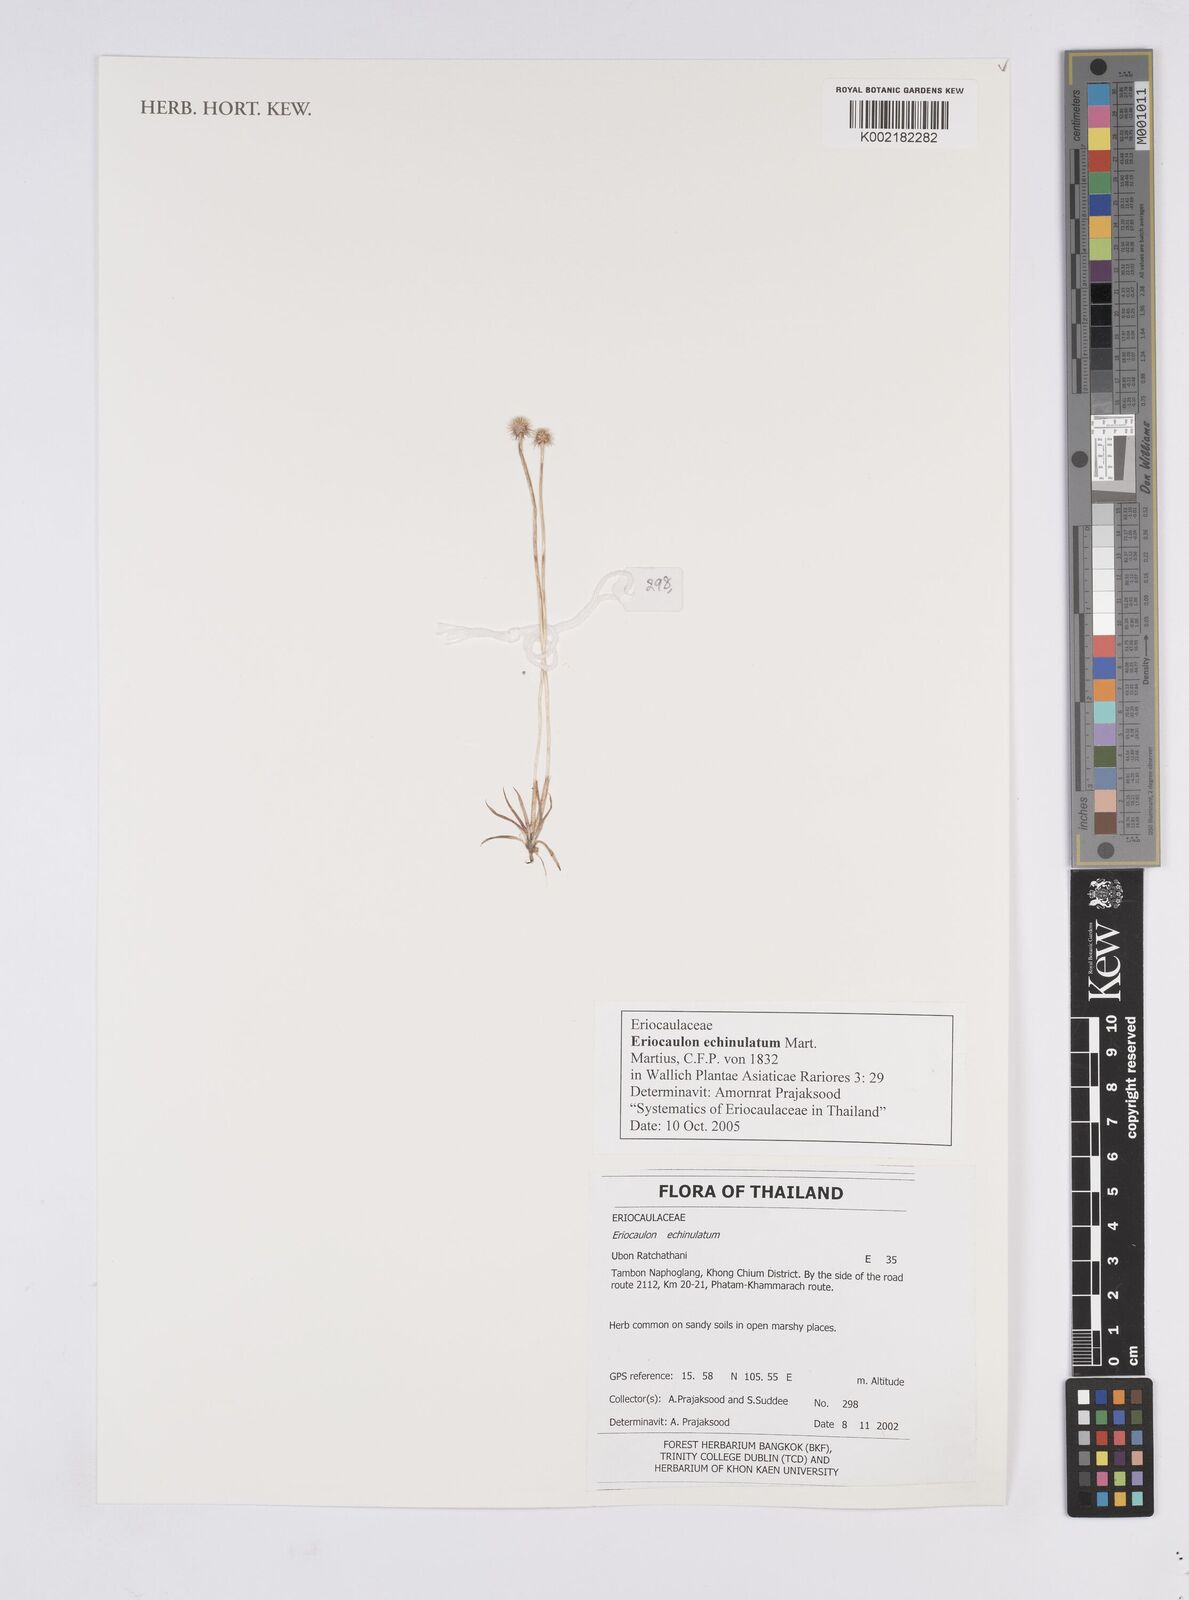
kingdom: Plantae
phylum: Tracheophyta
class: Liliopsida
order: Poales
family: Eriocaulaceae
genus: Eriocaulon
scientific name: Eriocaulon echinulatum
